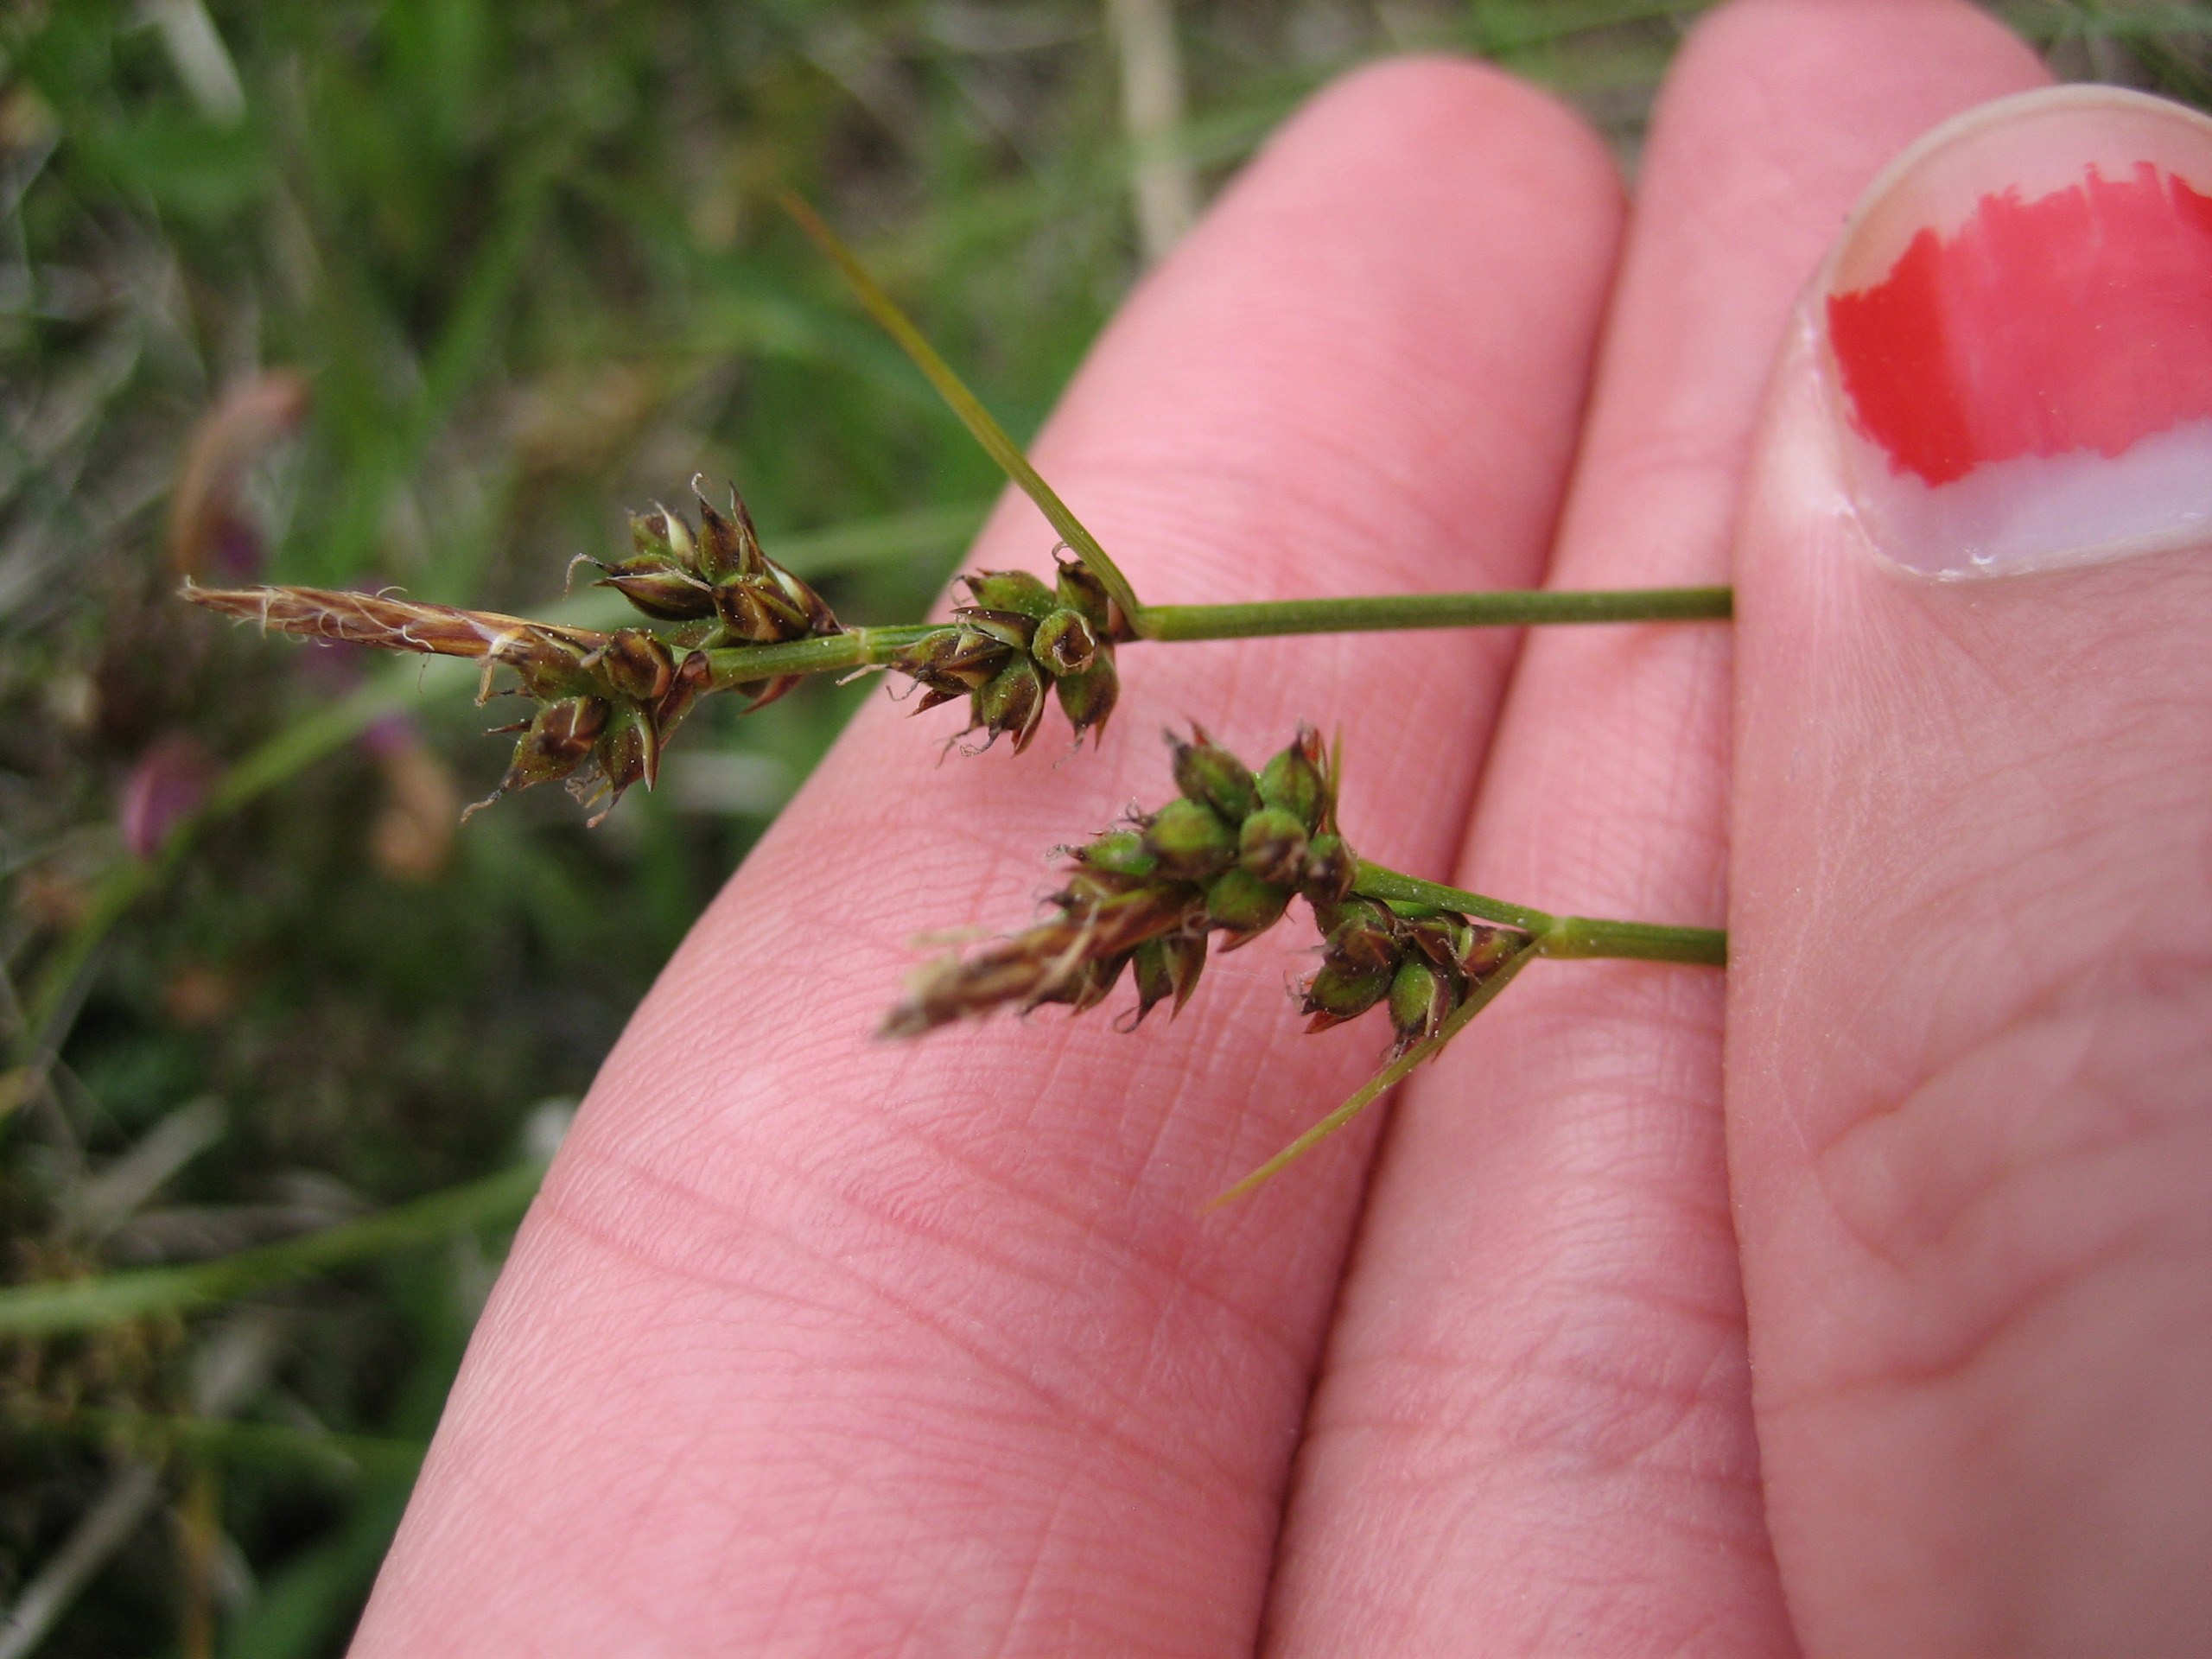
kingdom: Plantae
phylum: Tracheophyta
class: Liliopsida
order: Poales
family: Cyperaceae
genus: Carex
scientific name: Carex pilulifera
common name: Pille-star
